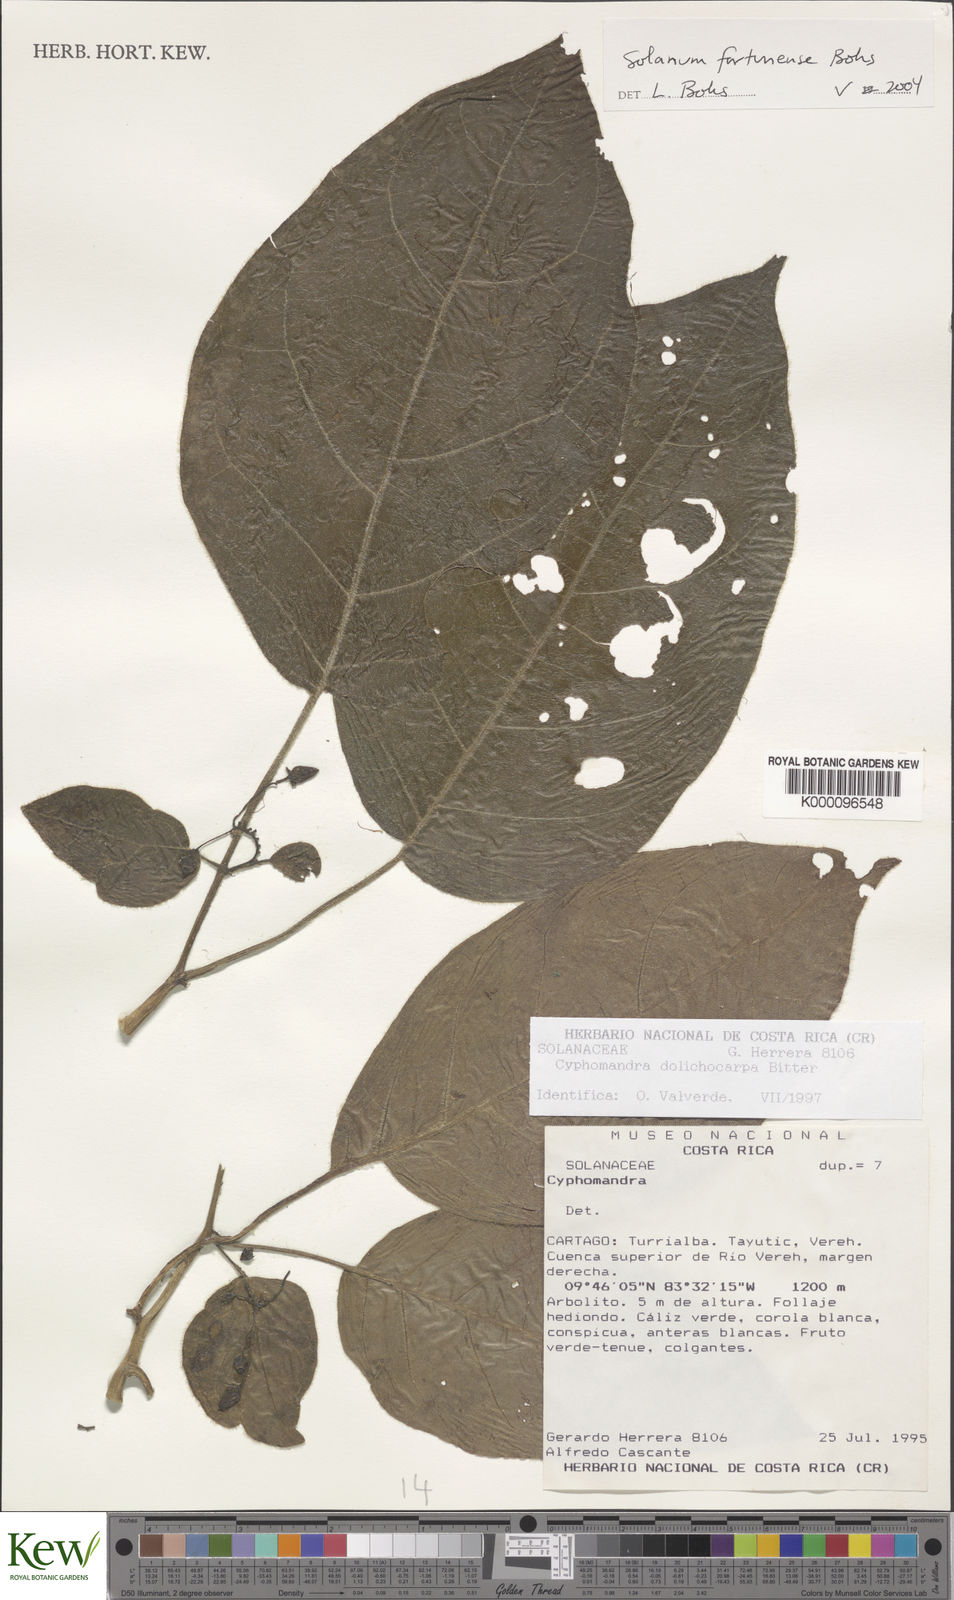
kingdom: Plantae
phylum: Tracheophyta
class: Magnoliopsida
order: Solanales
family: Solanaceae
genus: Solanum
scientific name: Solanum fortunense
